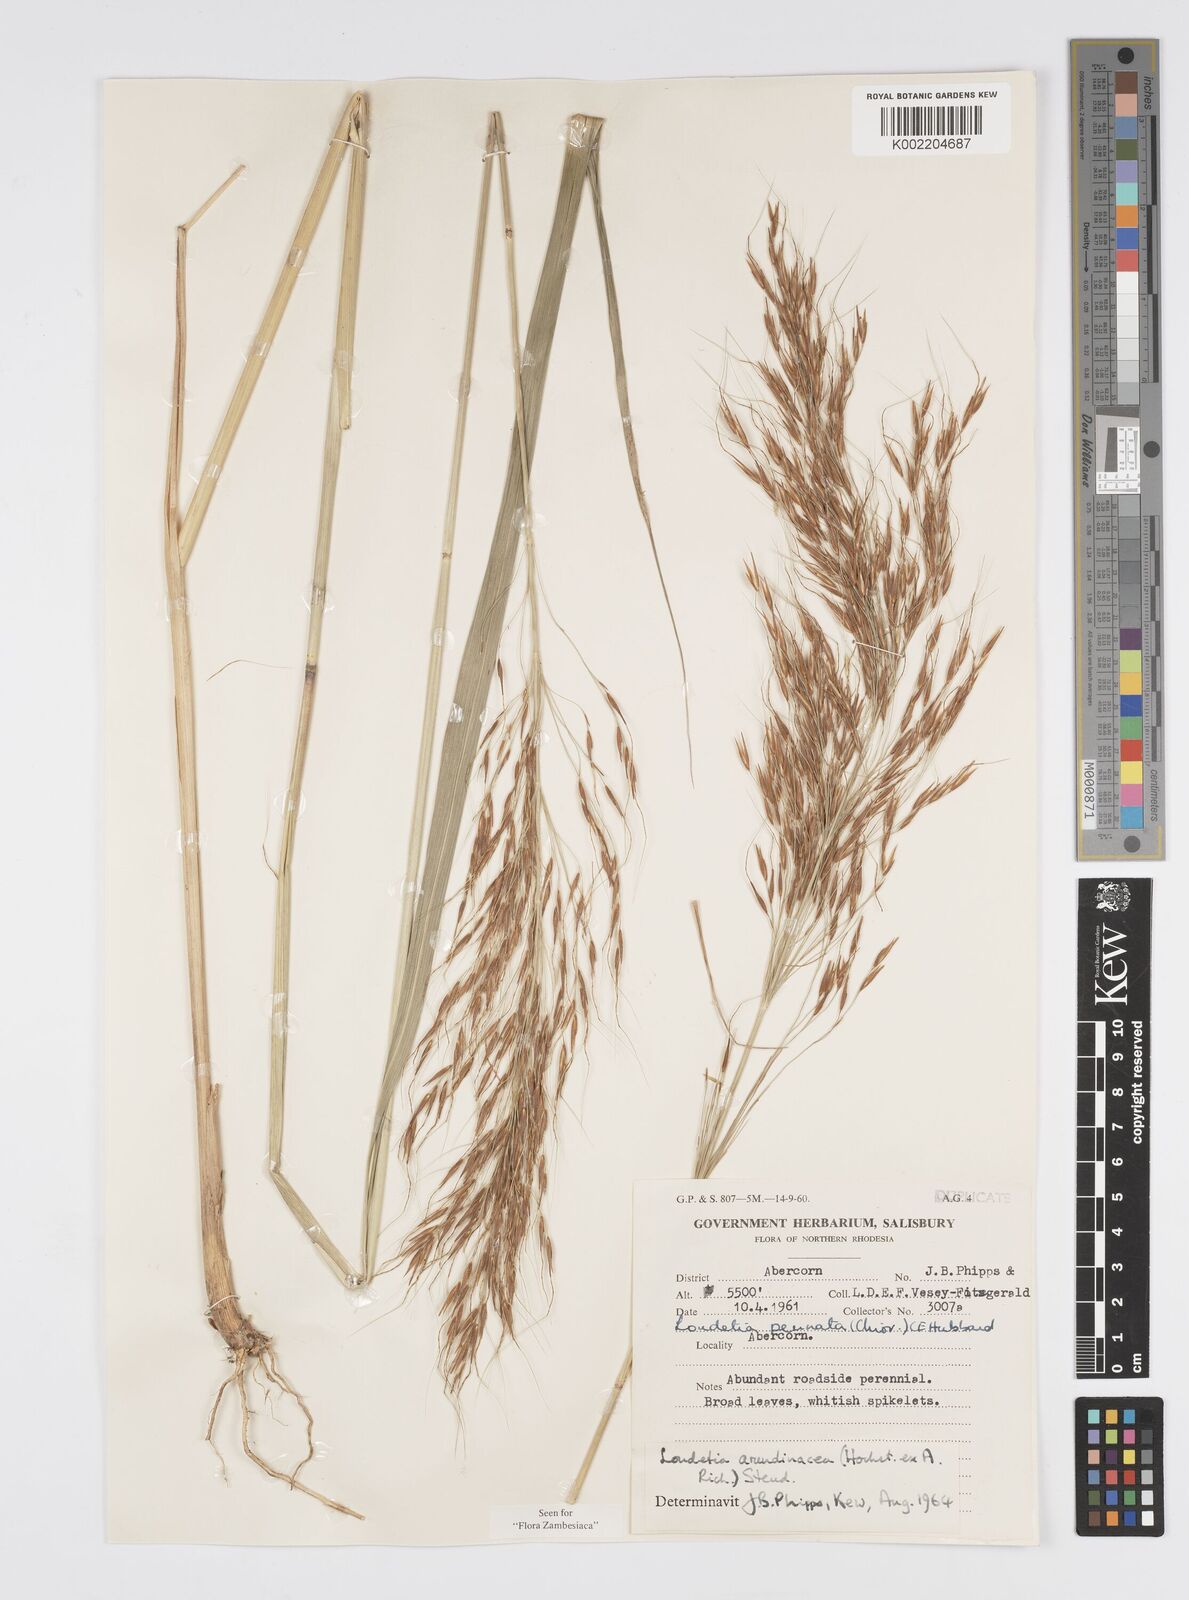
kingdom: Plantae
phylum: Tracheophyta
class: Liliopsida
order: Poales
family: Poaceae
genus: Loudetia
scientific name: Loudetia arundinacea
